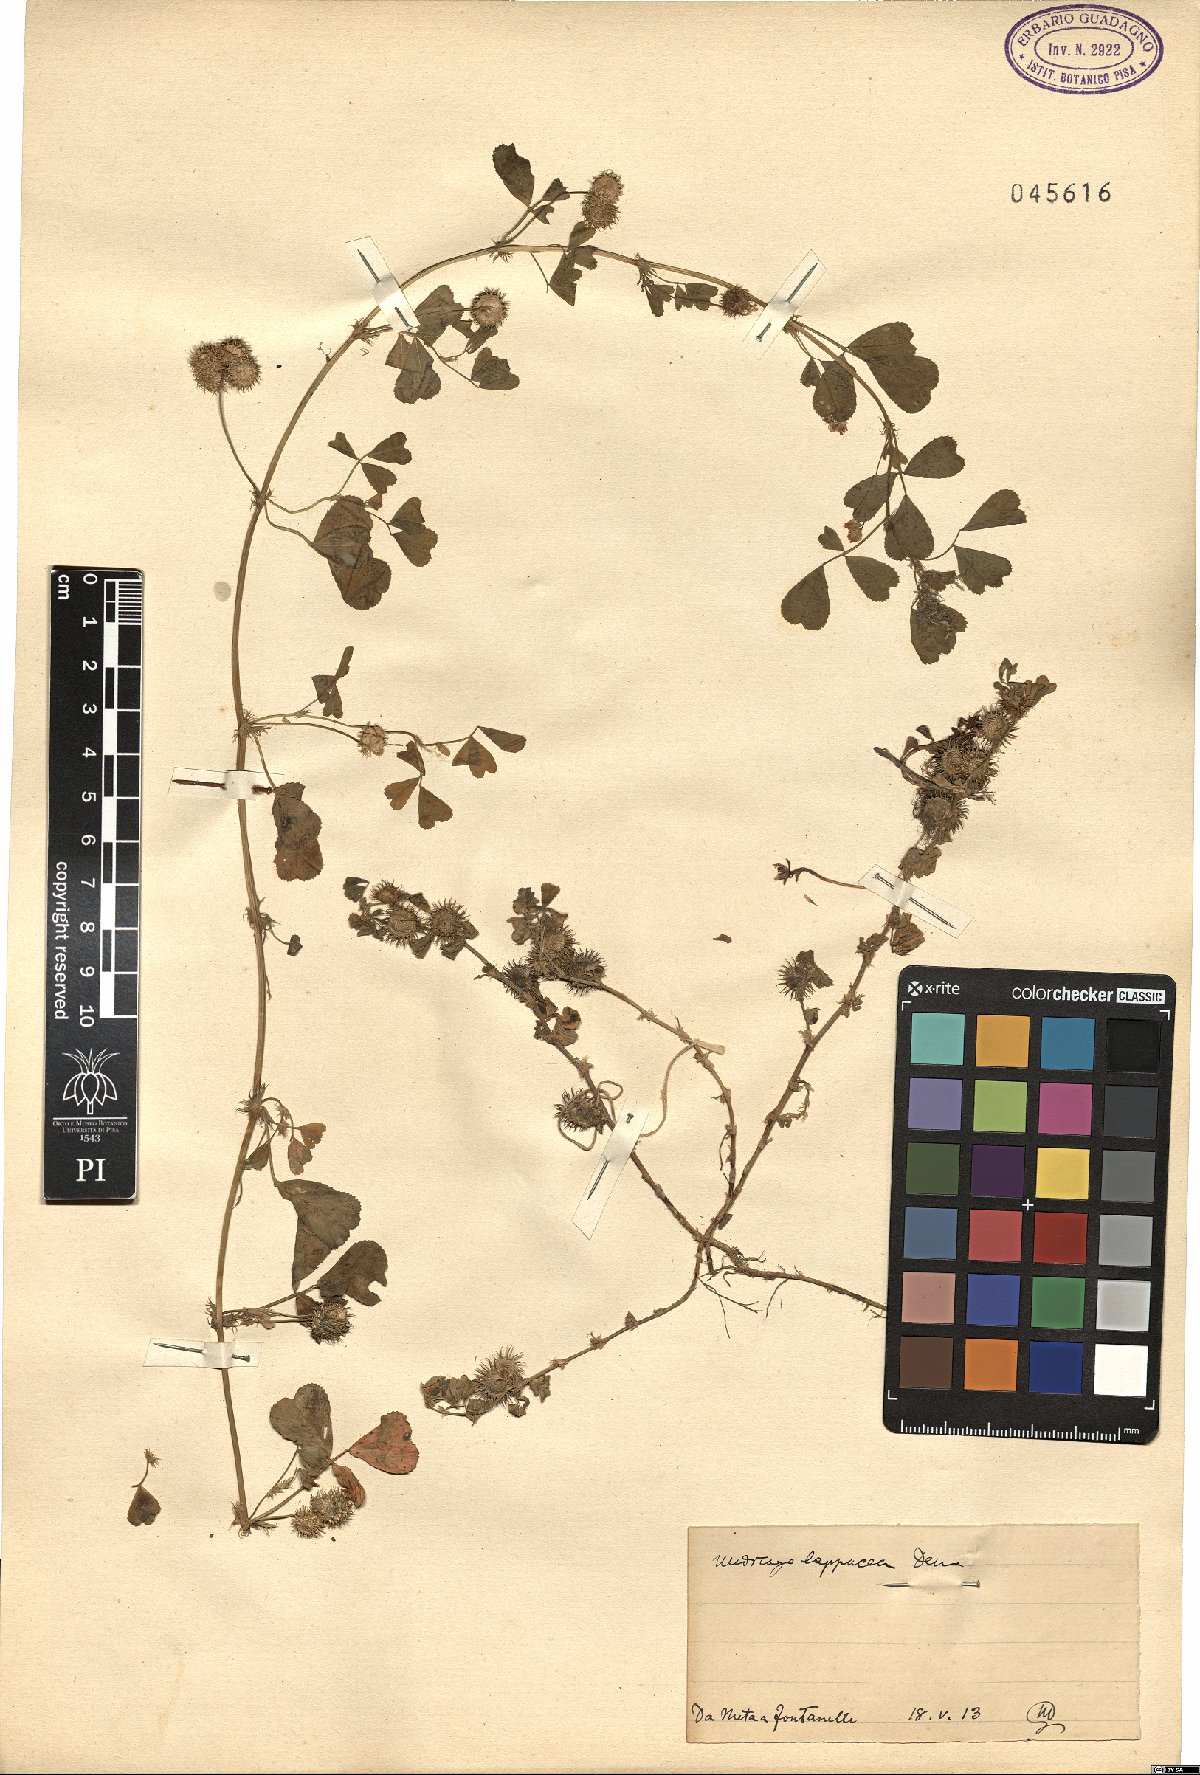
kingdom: Plantae
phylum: Tracheophyta
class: Magnoliopsida
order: Fabales
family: Fabaceae
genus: Medicago
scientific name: Medicago polymorpha
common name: Burclover
